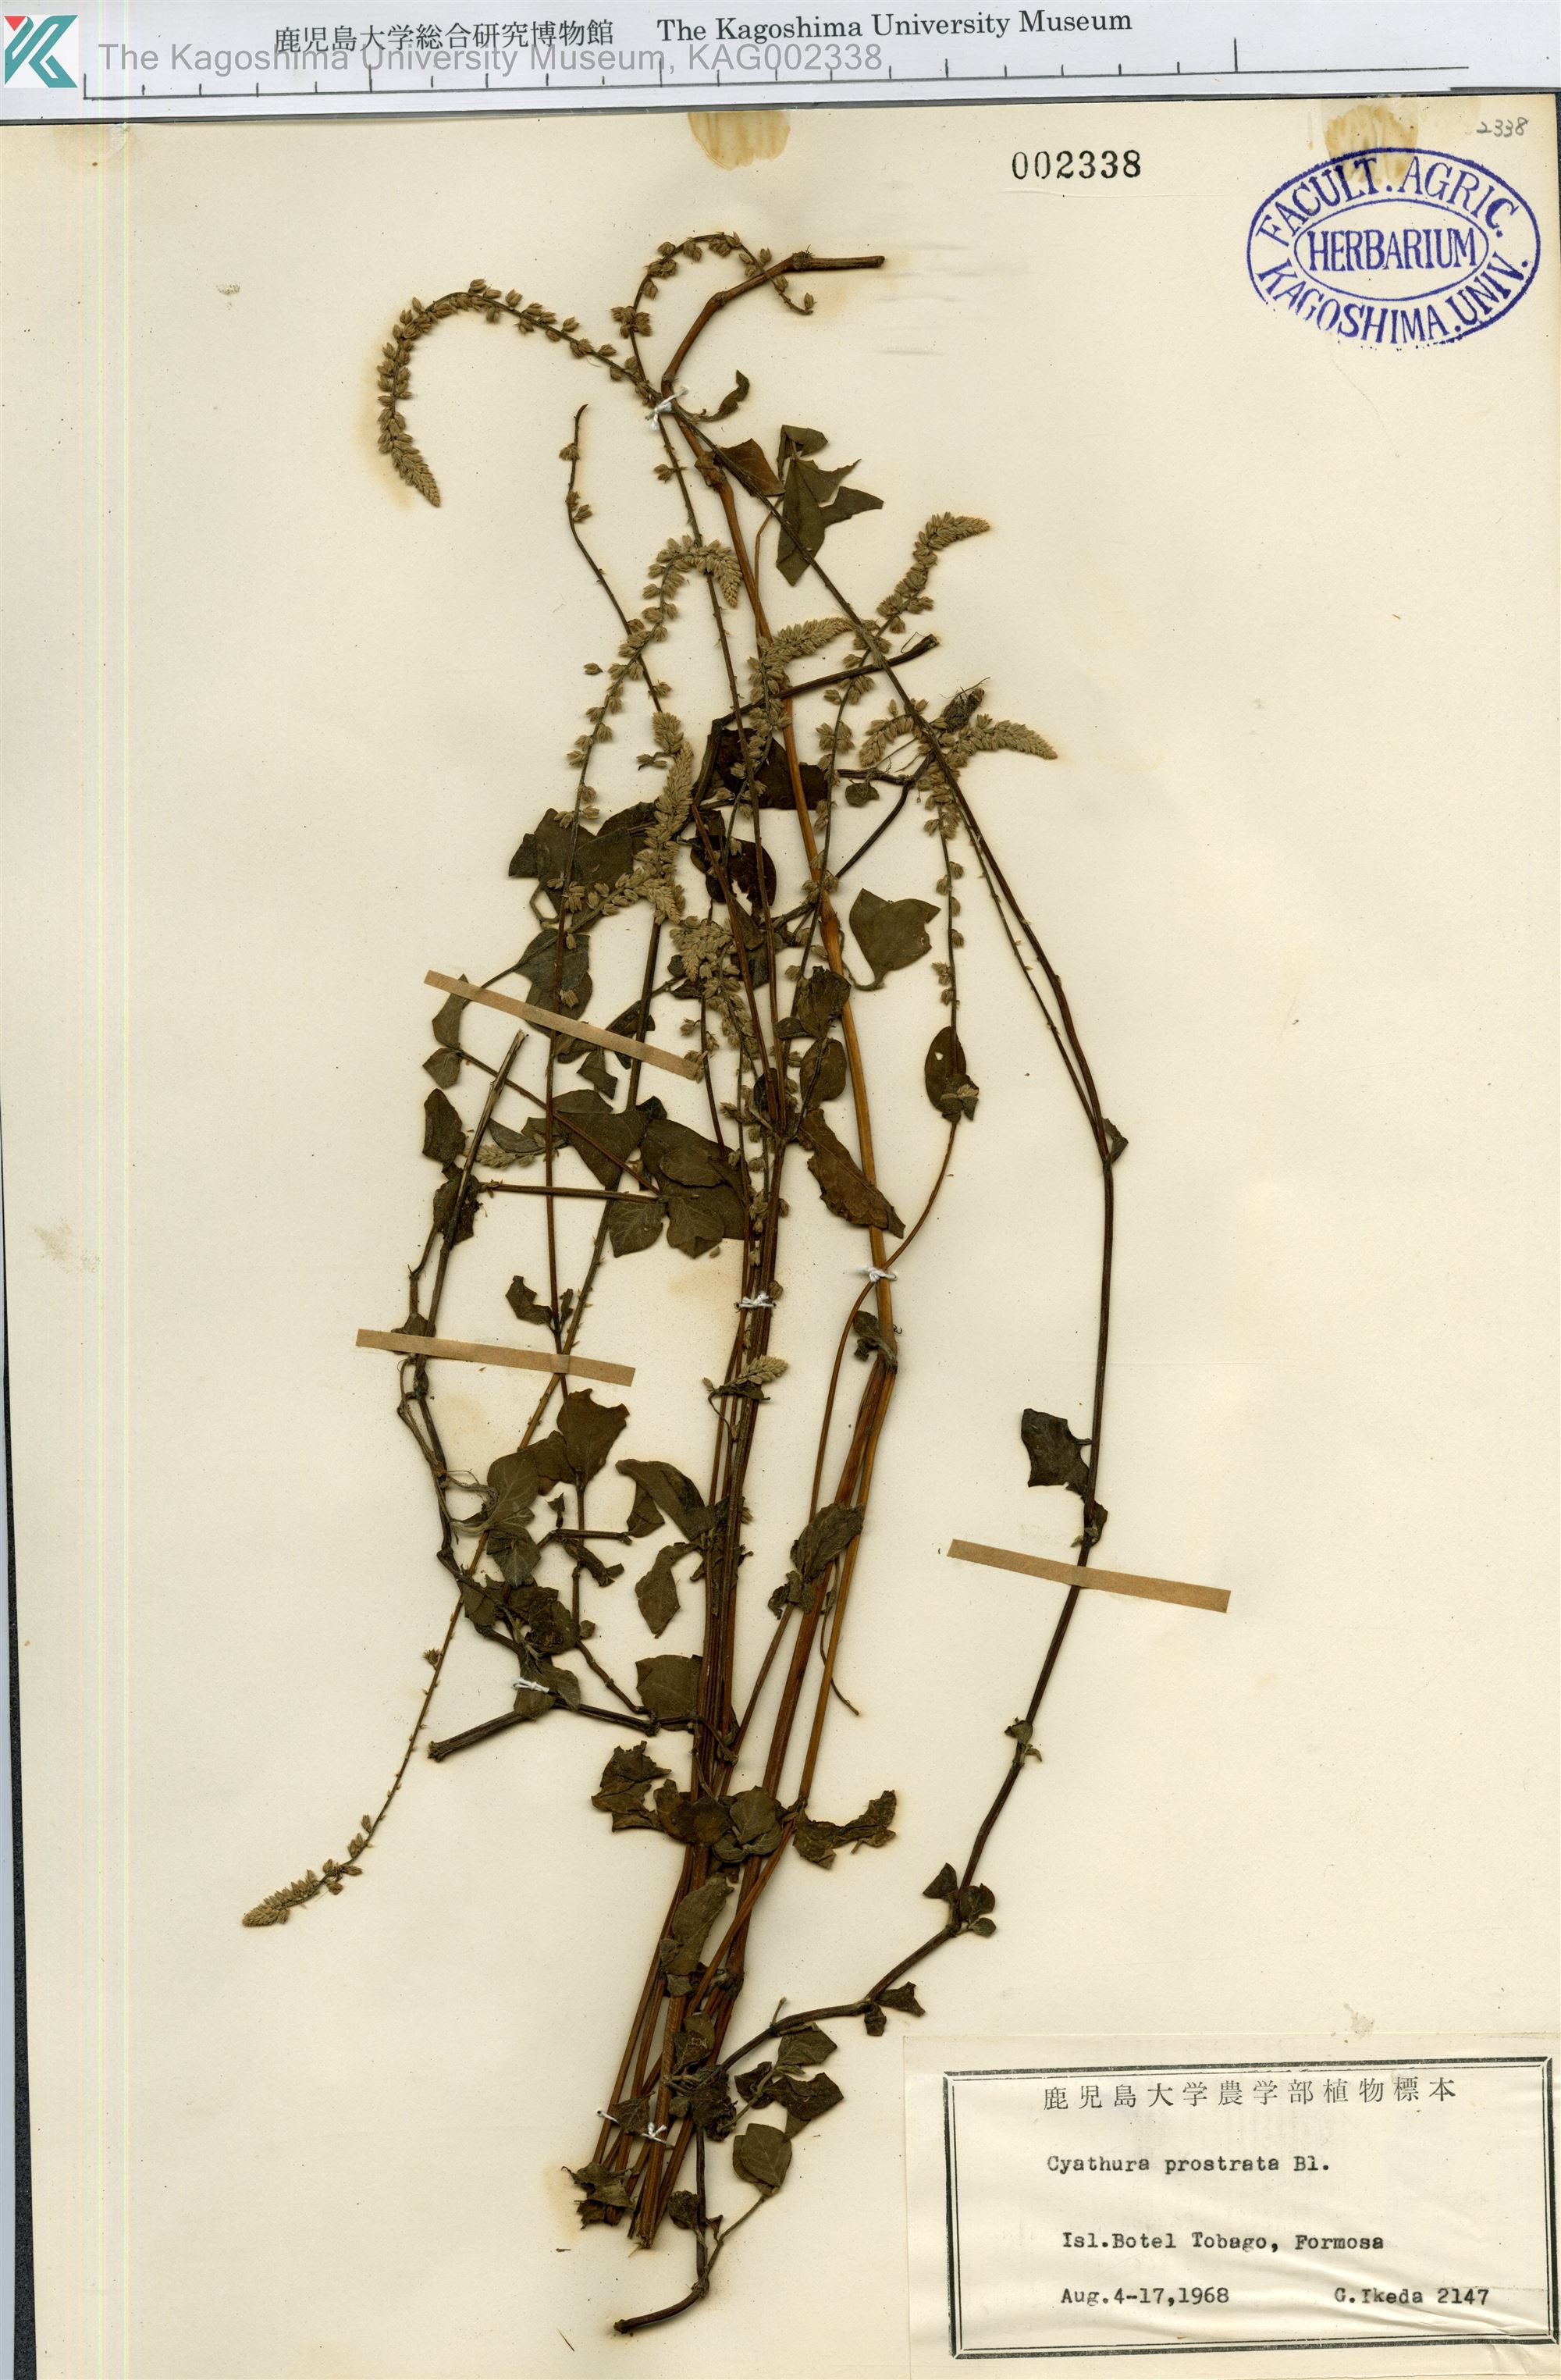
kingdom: Plantae
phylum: Tracheophyta
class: Magnoliopsida
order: Caryophyllales
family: Amaranthaceae
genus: Cyathula
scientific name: Cyathula prostrata
